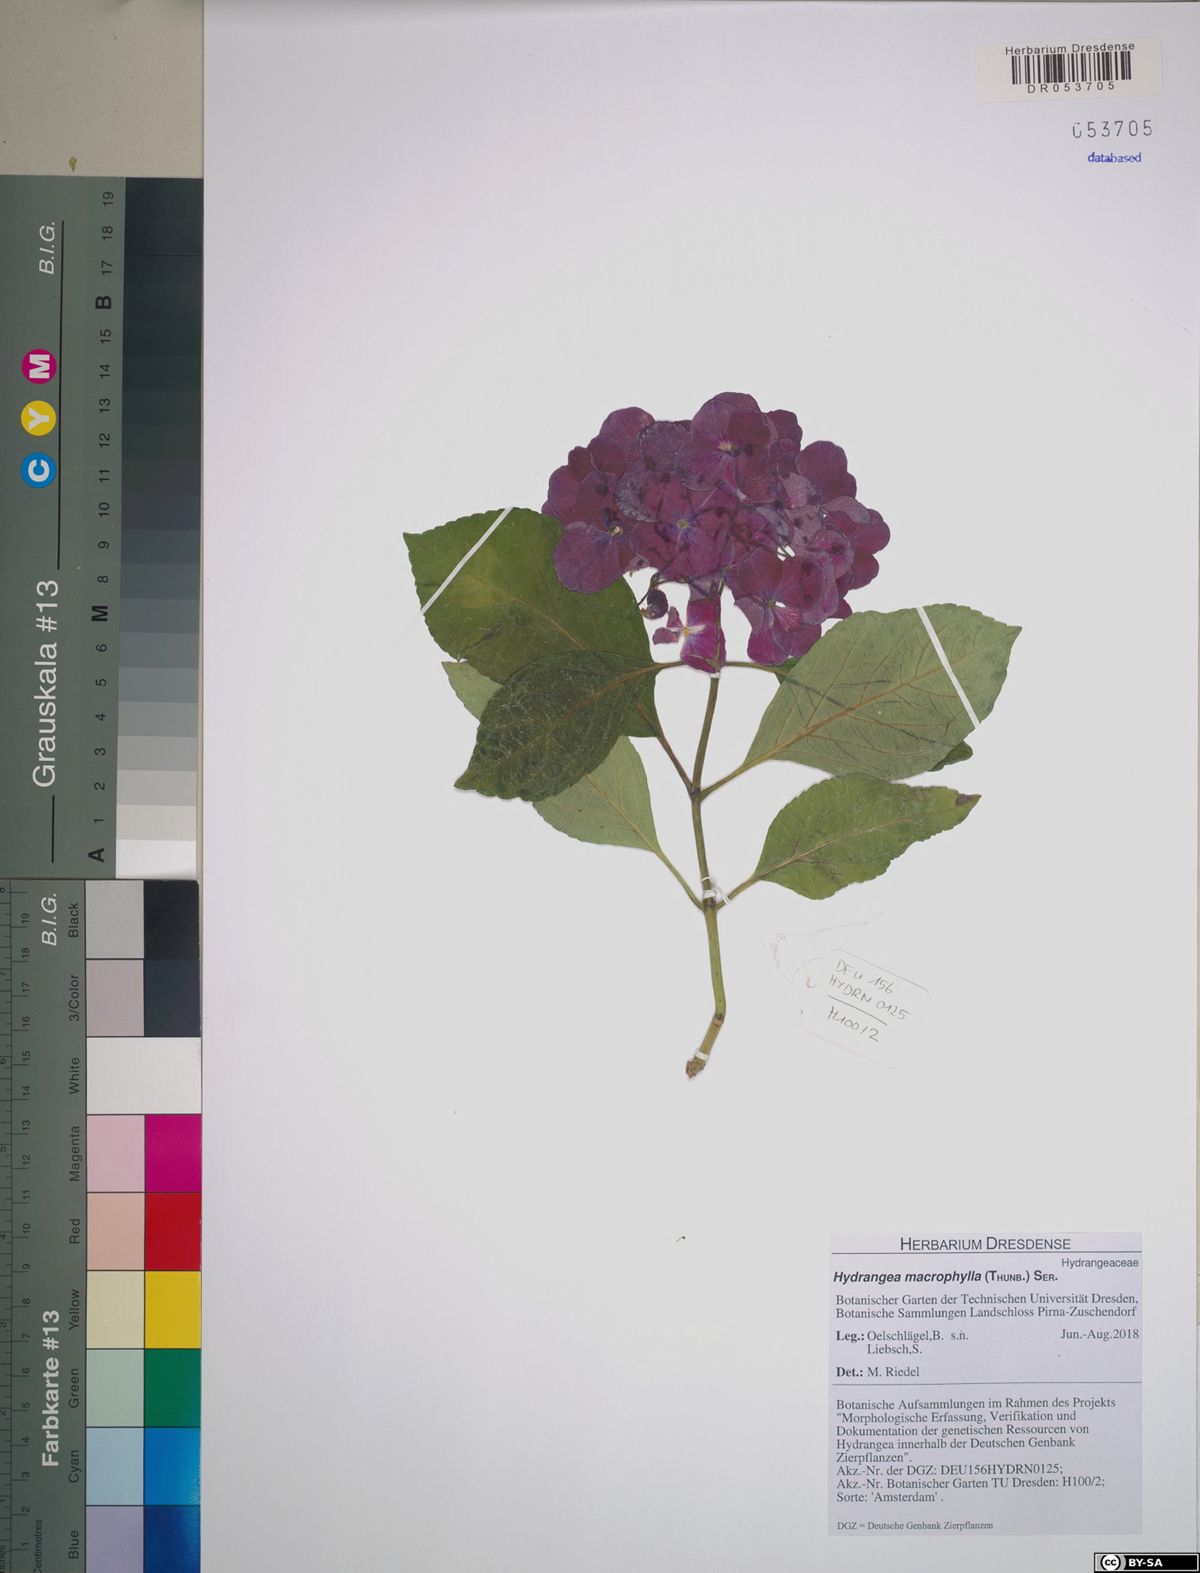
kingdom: Plantae
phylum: Tracheophyta
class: Magnoliopsida
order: Cornales
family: Hydrangeaceae
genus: Hydrangea
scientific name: Hydrangea macrophylla
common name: Hydrangea
